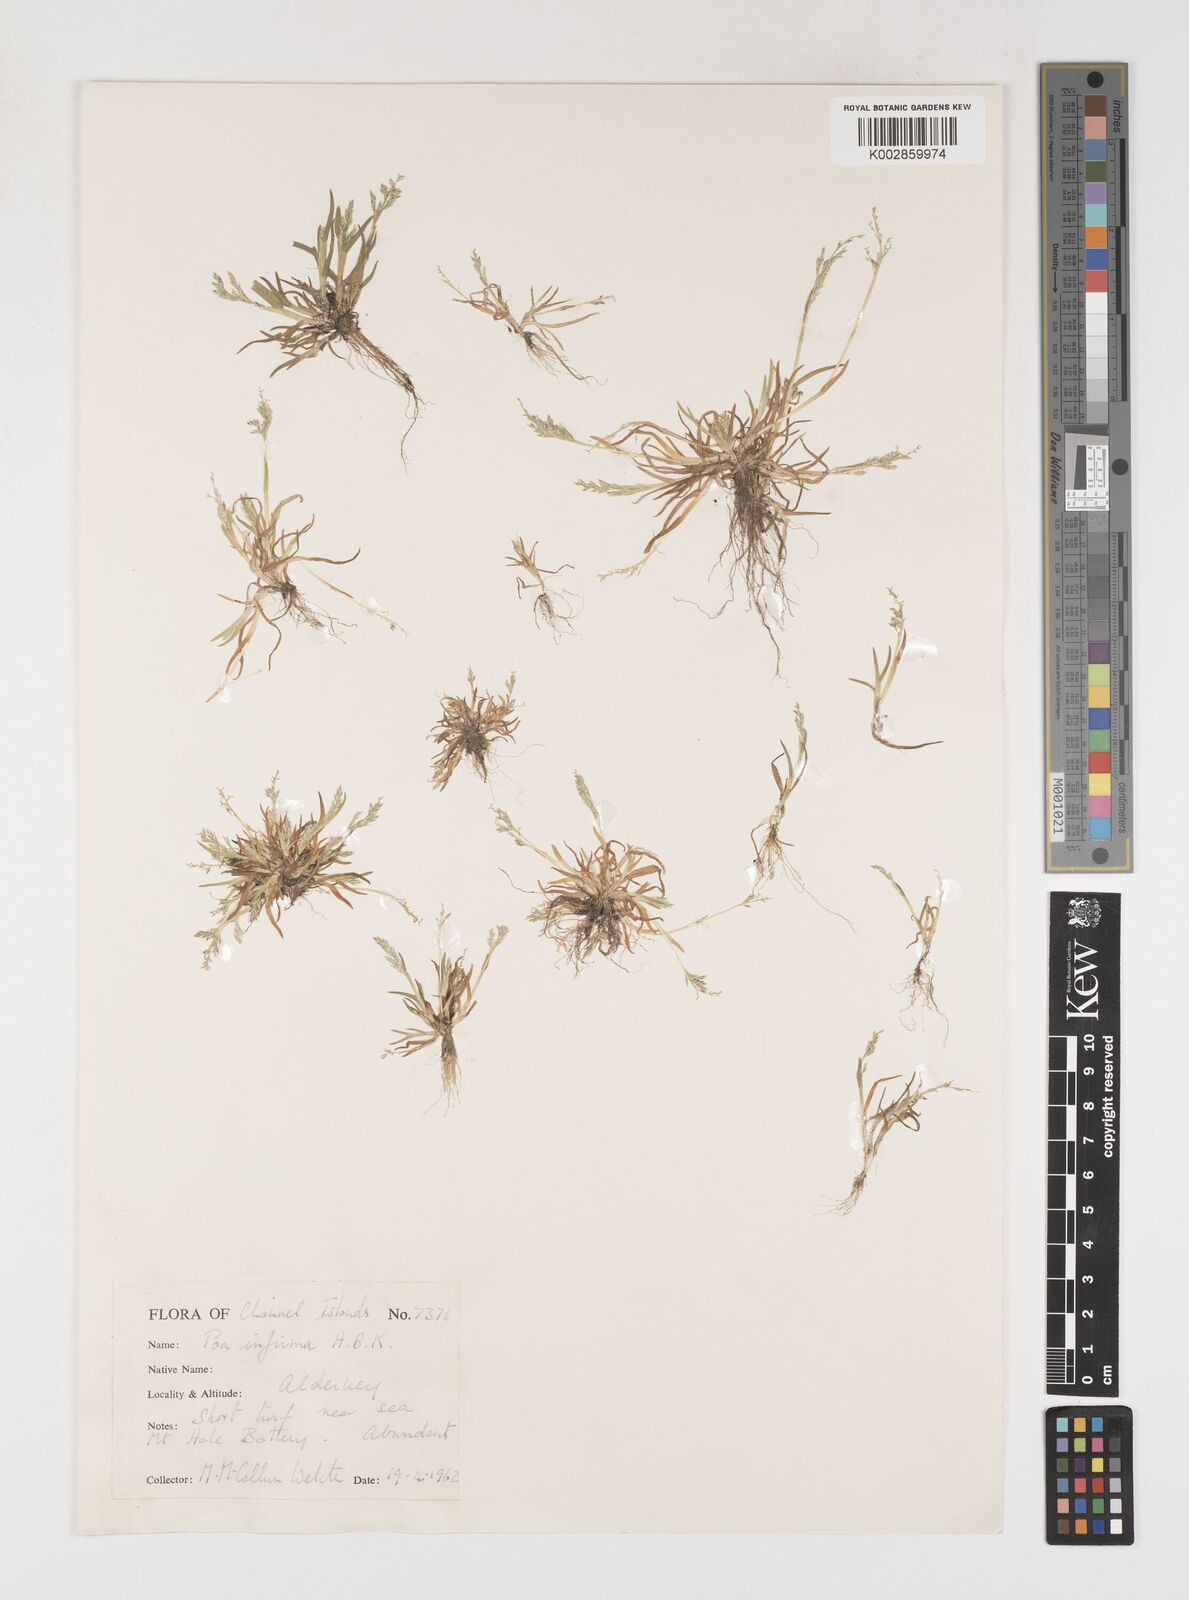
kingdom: Plantae
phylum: Tracheophyta
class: Liliopsida
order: Poales
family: Poaceae
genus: Poa
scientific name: Poa infirma
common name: Weak bluegrass
